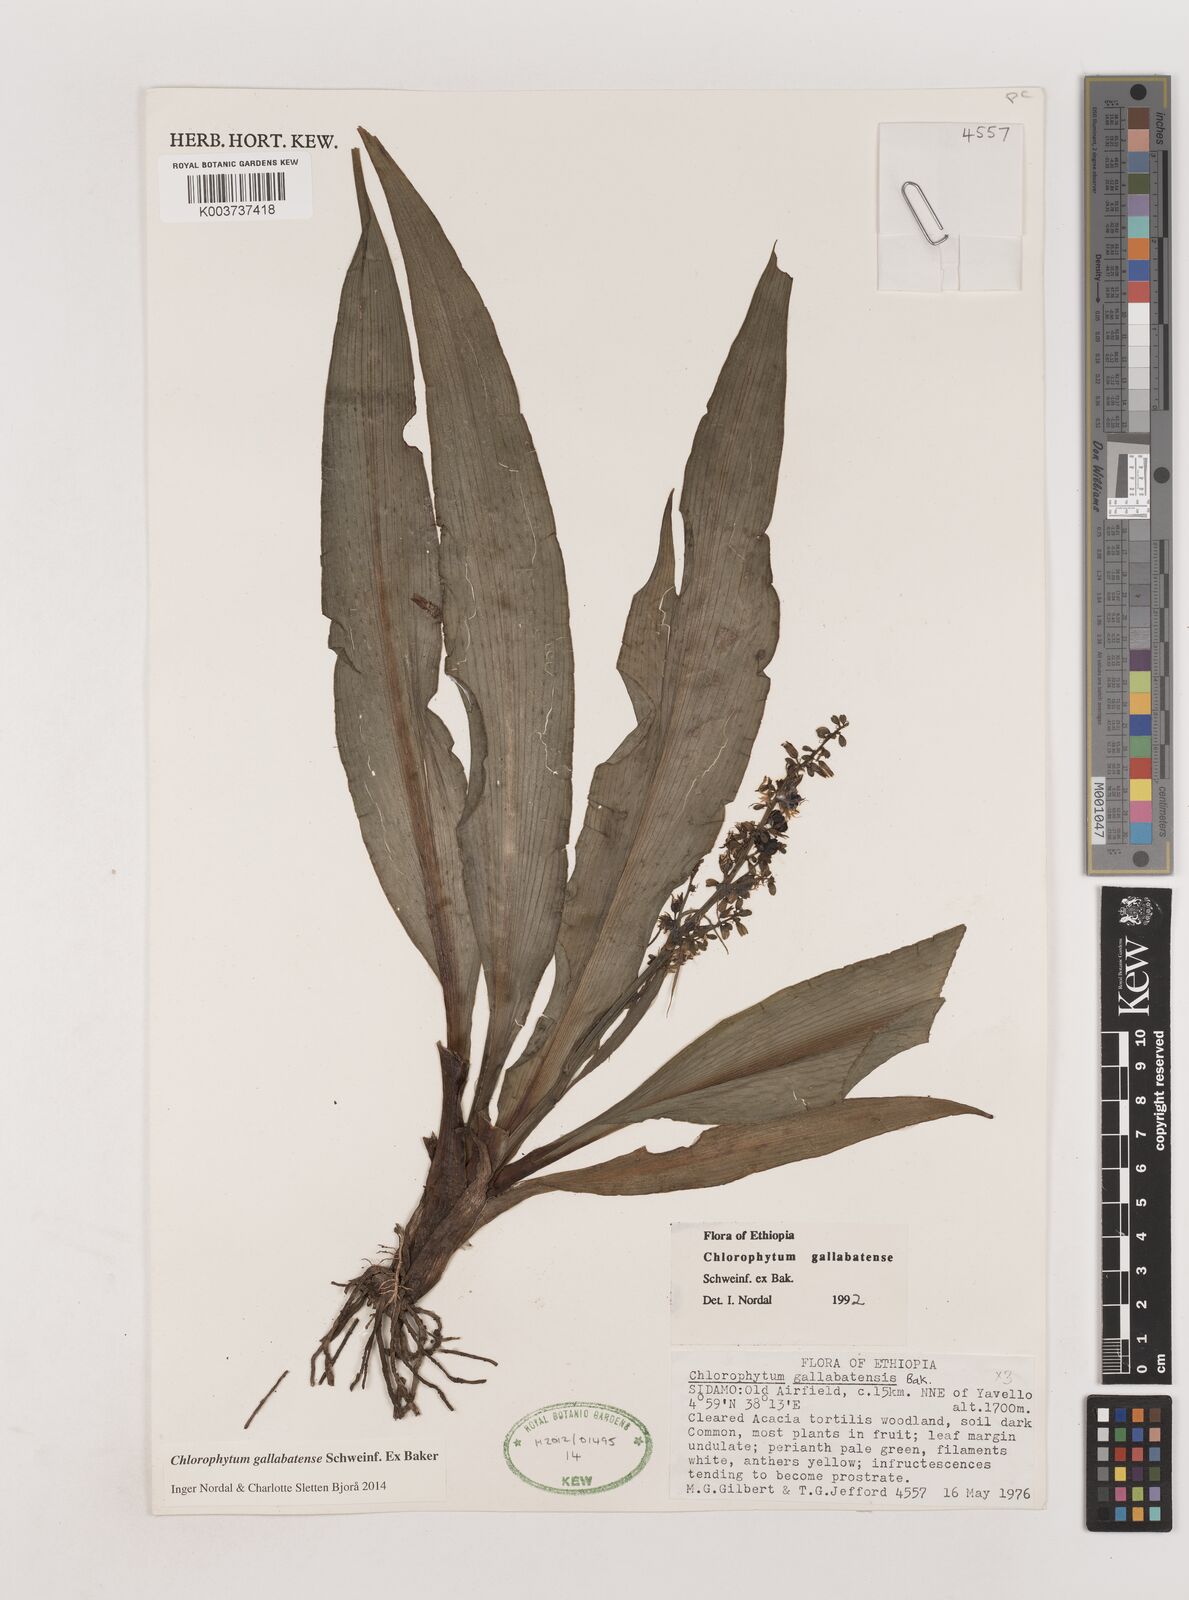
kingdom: Plantae
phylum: Tracheophyta
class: Liliopsida
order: Asparagales
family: Asparagaceae
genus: Chlorophytum
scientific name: Chlorophytum gallabatense
